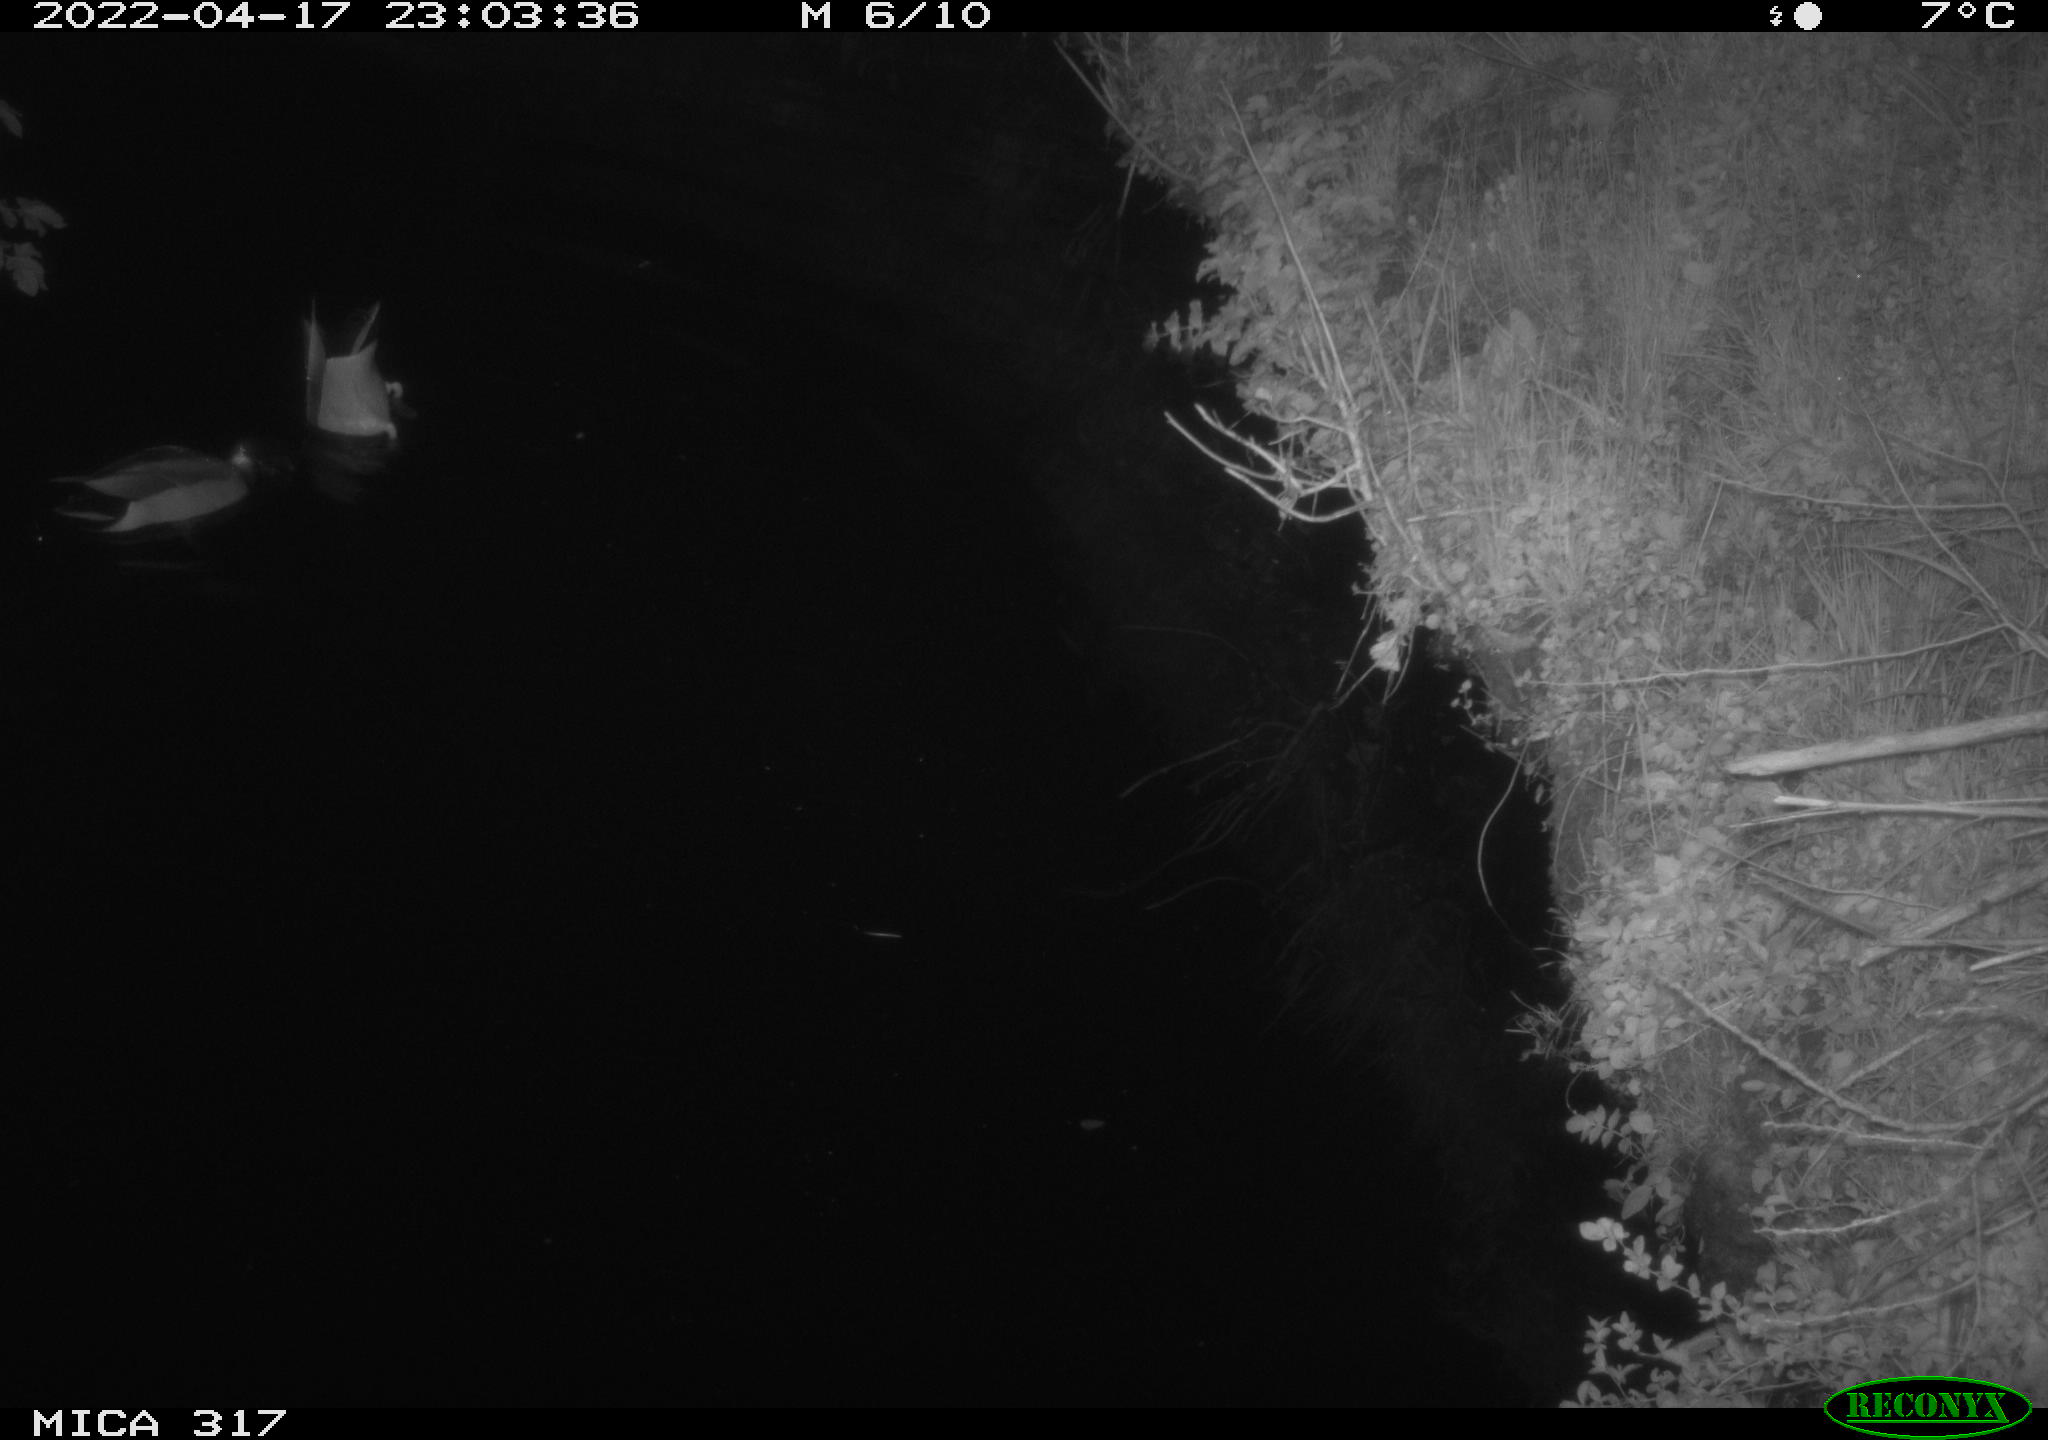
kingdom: Animalia
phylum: Chordata
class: Aves
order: Anseriformes
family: Anatidae
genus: Anas
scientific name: Anas platyrhynchos
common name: Mallard
